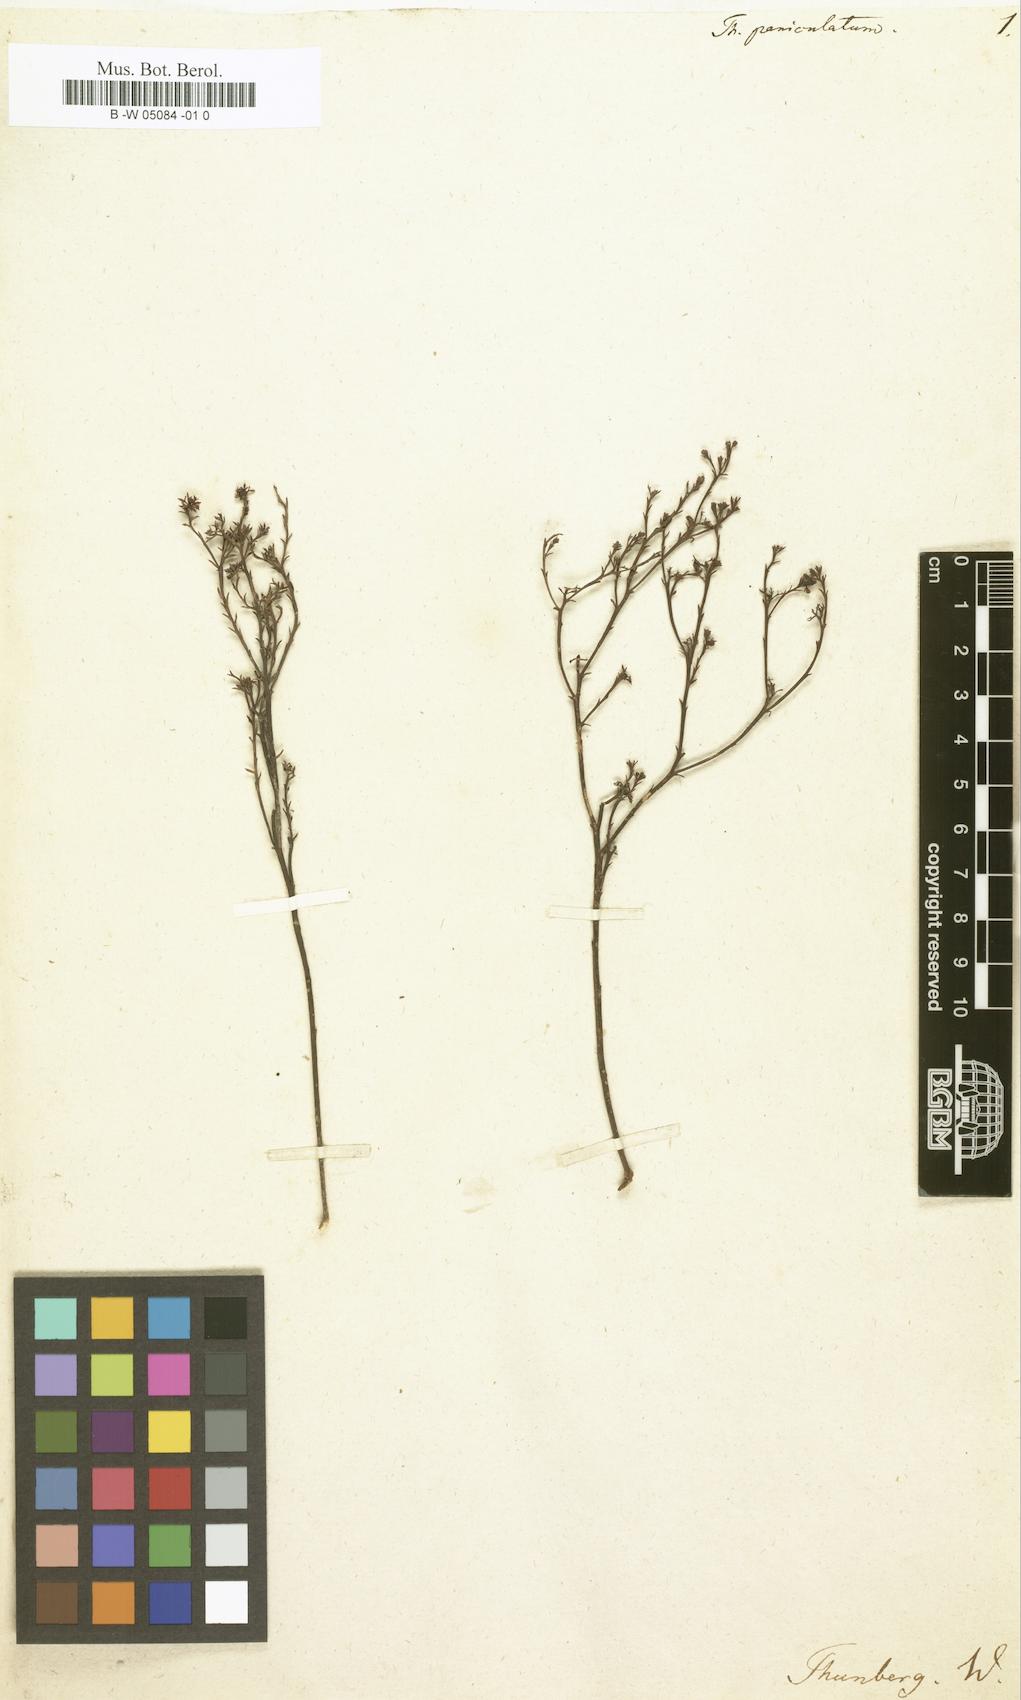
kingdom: Plantae
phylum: Tracheophyta
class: Magnoliopsida
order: Santalales
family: Thesiaceae
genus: Thesium
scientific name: Thesium paniculatum
